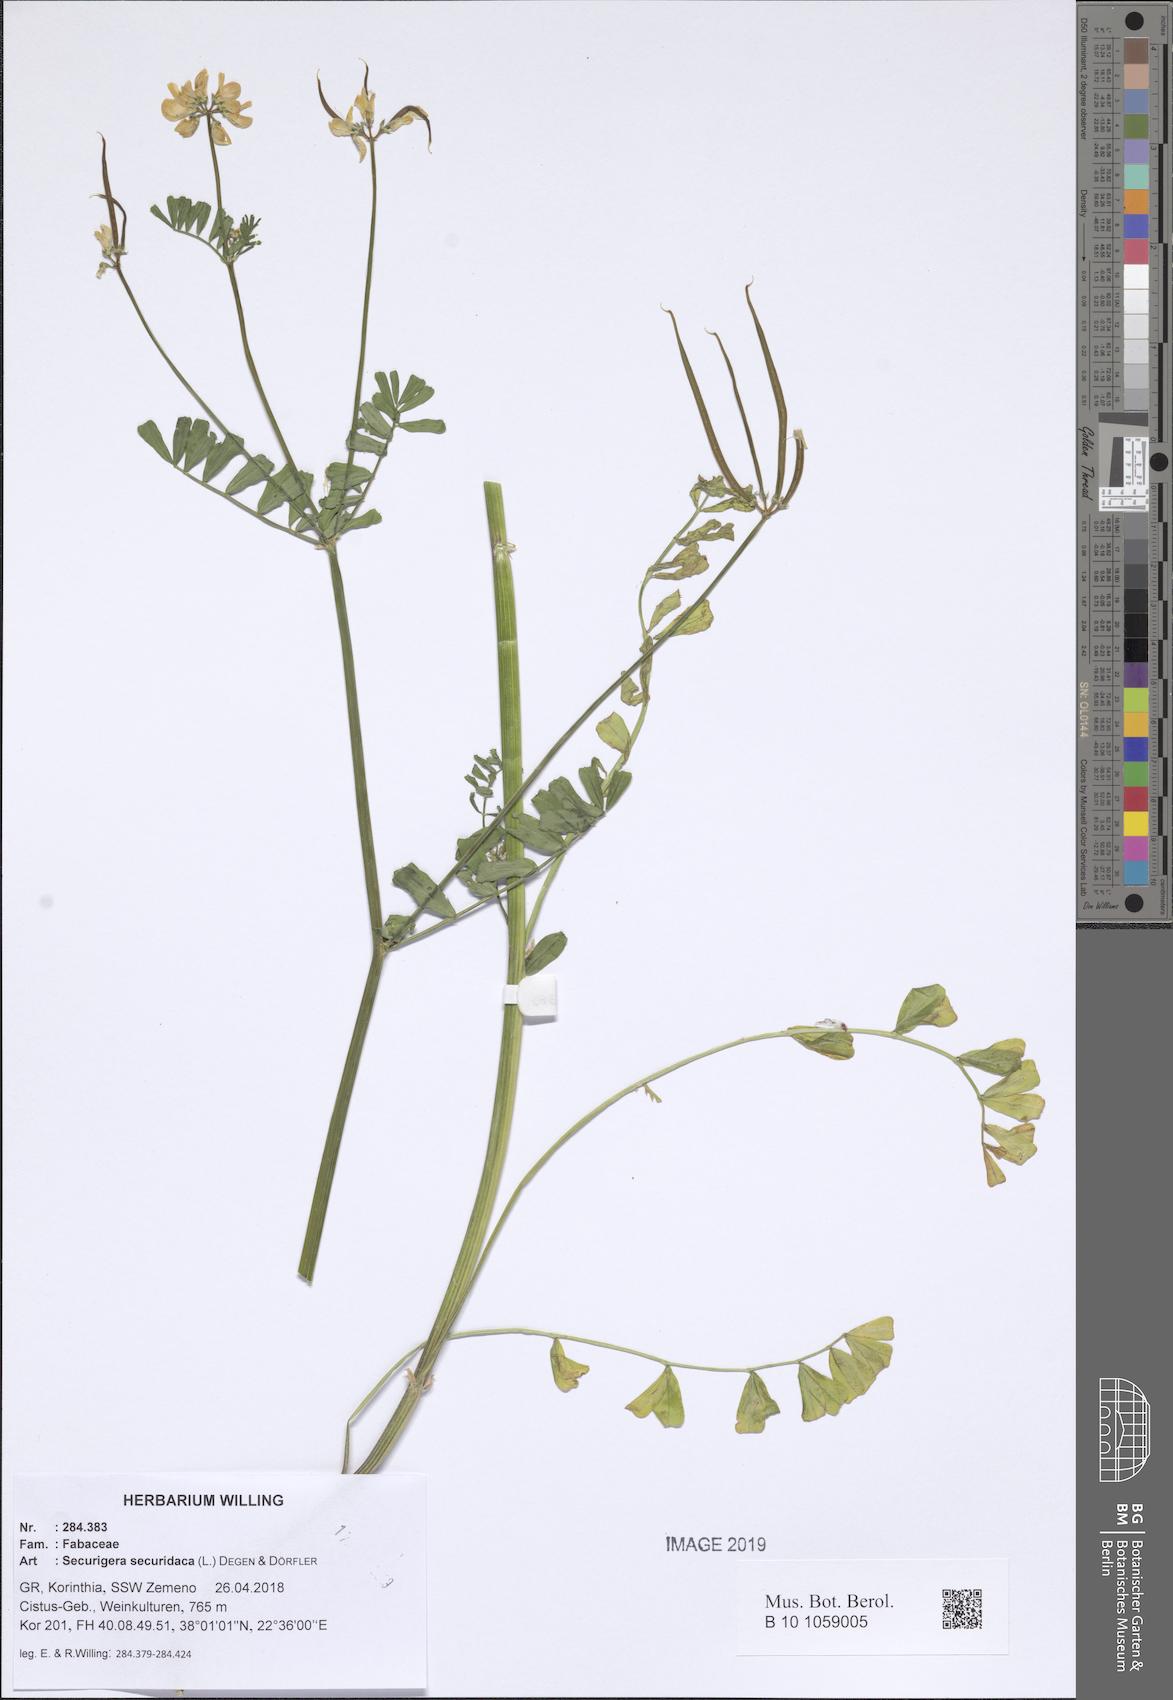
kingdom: Plantae
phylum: Tracheophyta
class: Magnoliopsida
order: Fabales
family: Fabaceae
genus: Coronilla
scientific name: Coronilla securidaca
